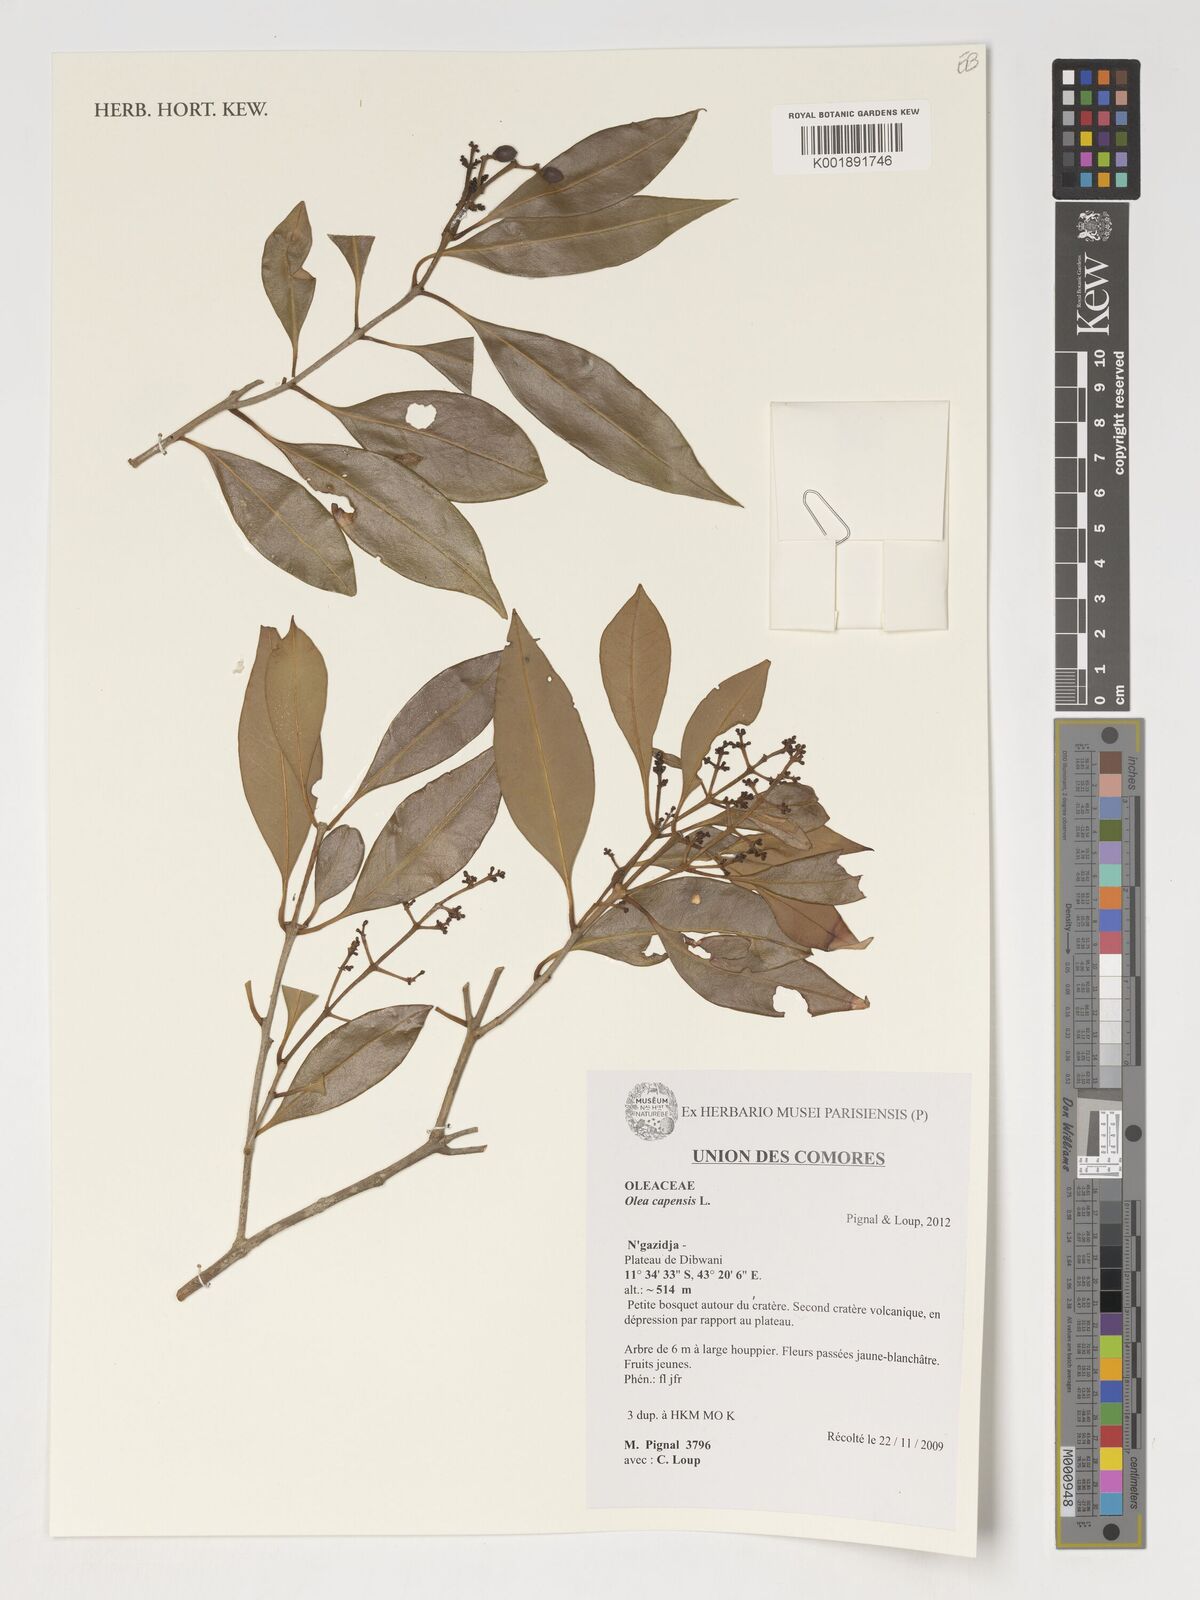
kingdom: Plantae
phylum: Tracheophyta
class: Magnoliopsida
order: Lamiales
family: Oleaceae
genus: Olea
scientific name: Olea capensis
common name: Black ironwood
